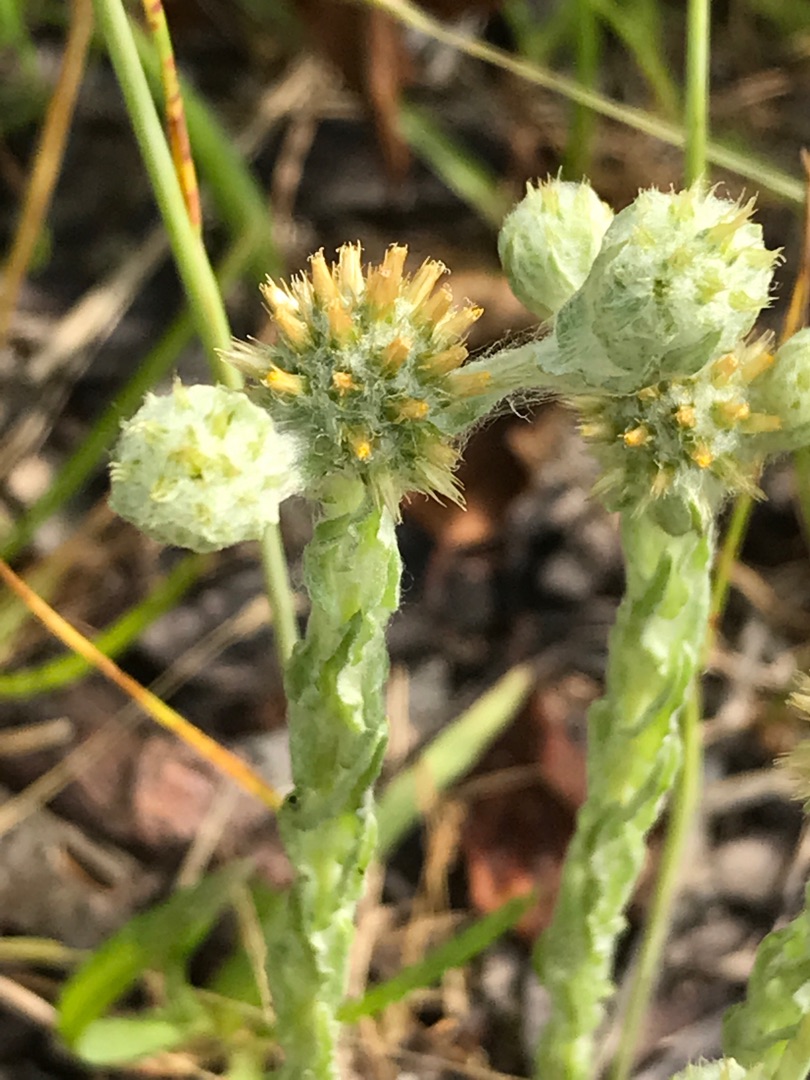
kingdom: Plantae
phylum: Tracheophyta
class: Magnoliopsida
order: Asterales
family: Asteraceae
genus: Filago
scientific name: Filago germanica
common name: Kugle-museurt
